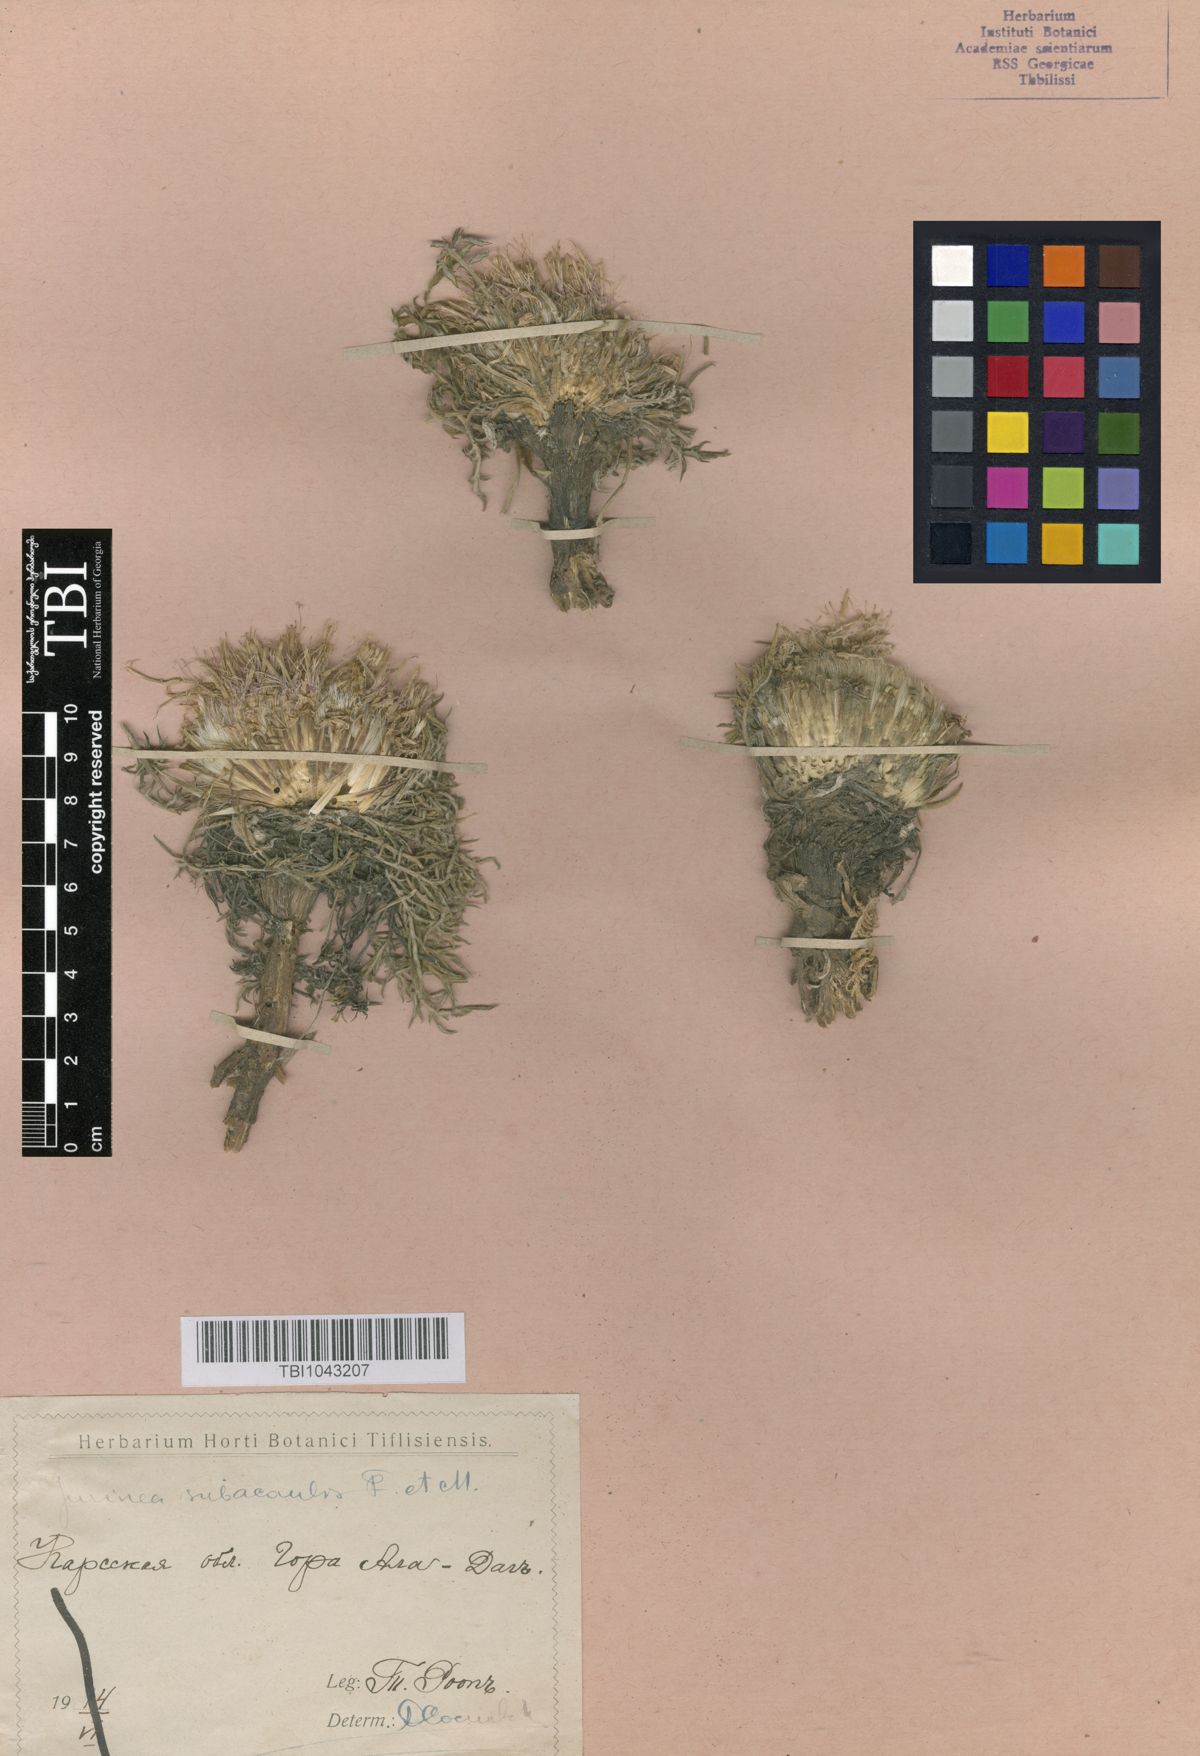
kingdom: Plantae
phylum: Tracheophyta
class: Magnoliopsida
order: Asterales
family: Asteraceae
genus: Jurinea
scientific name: Jurinea moschus
